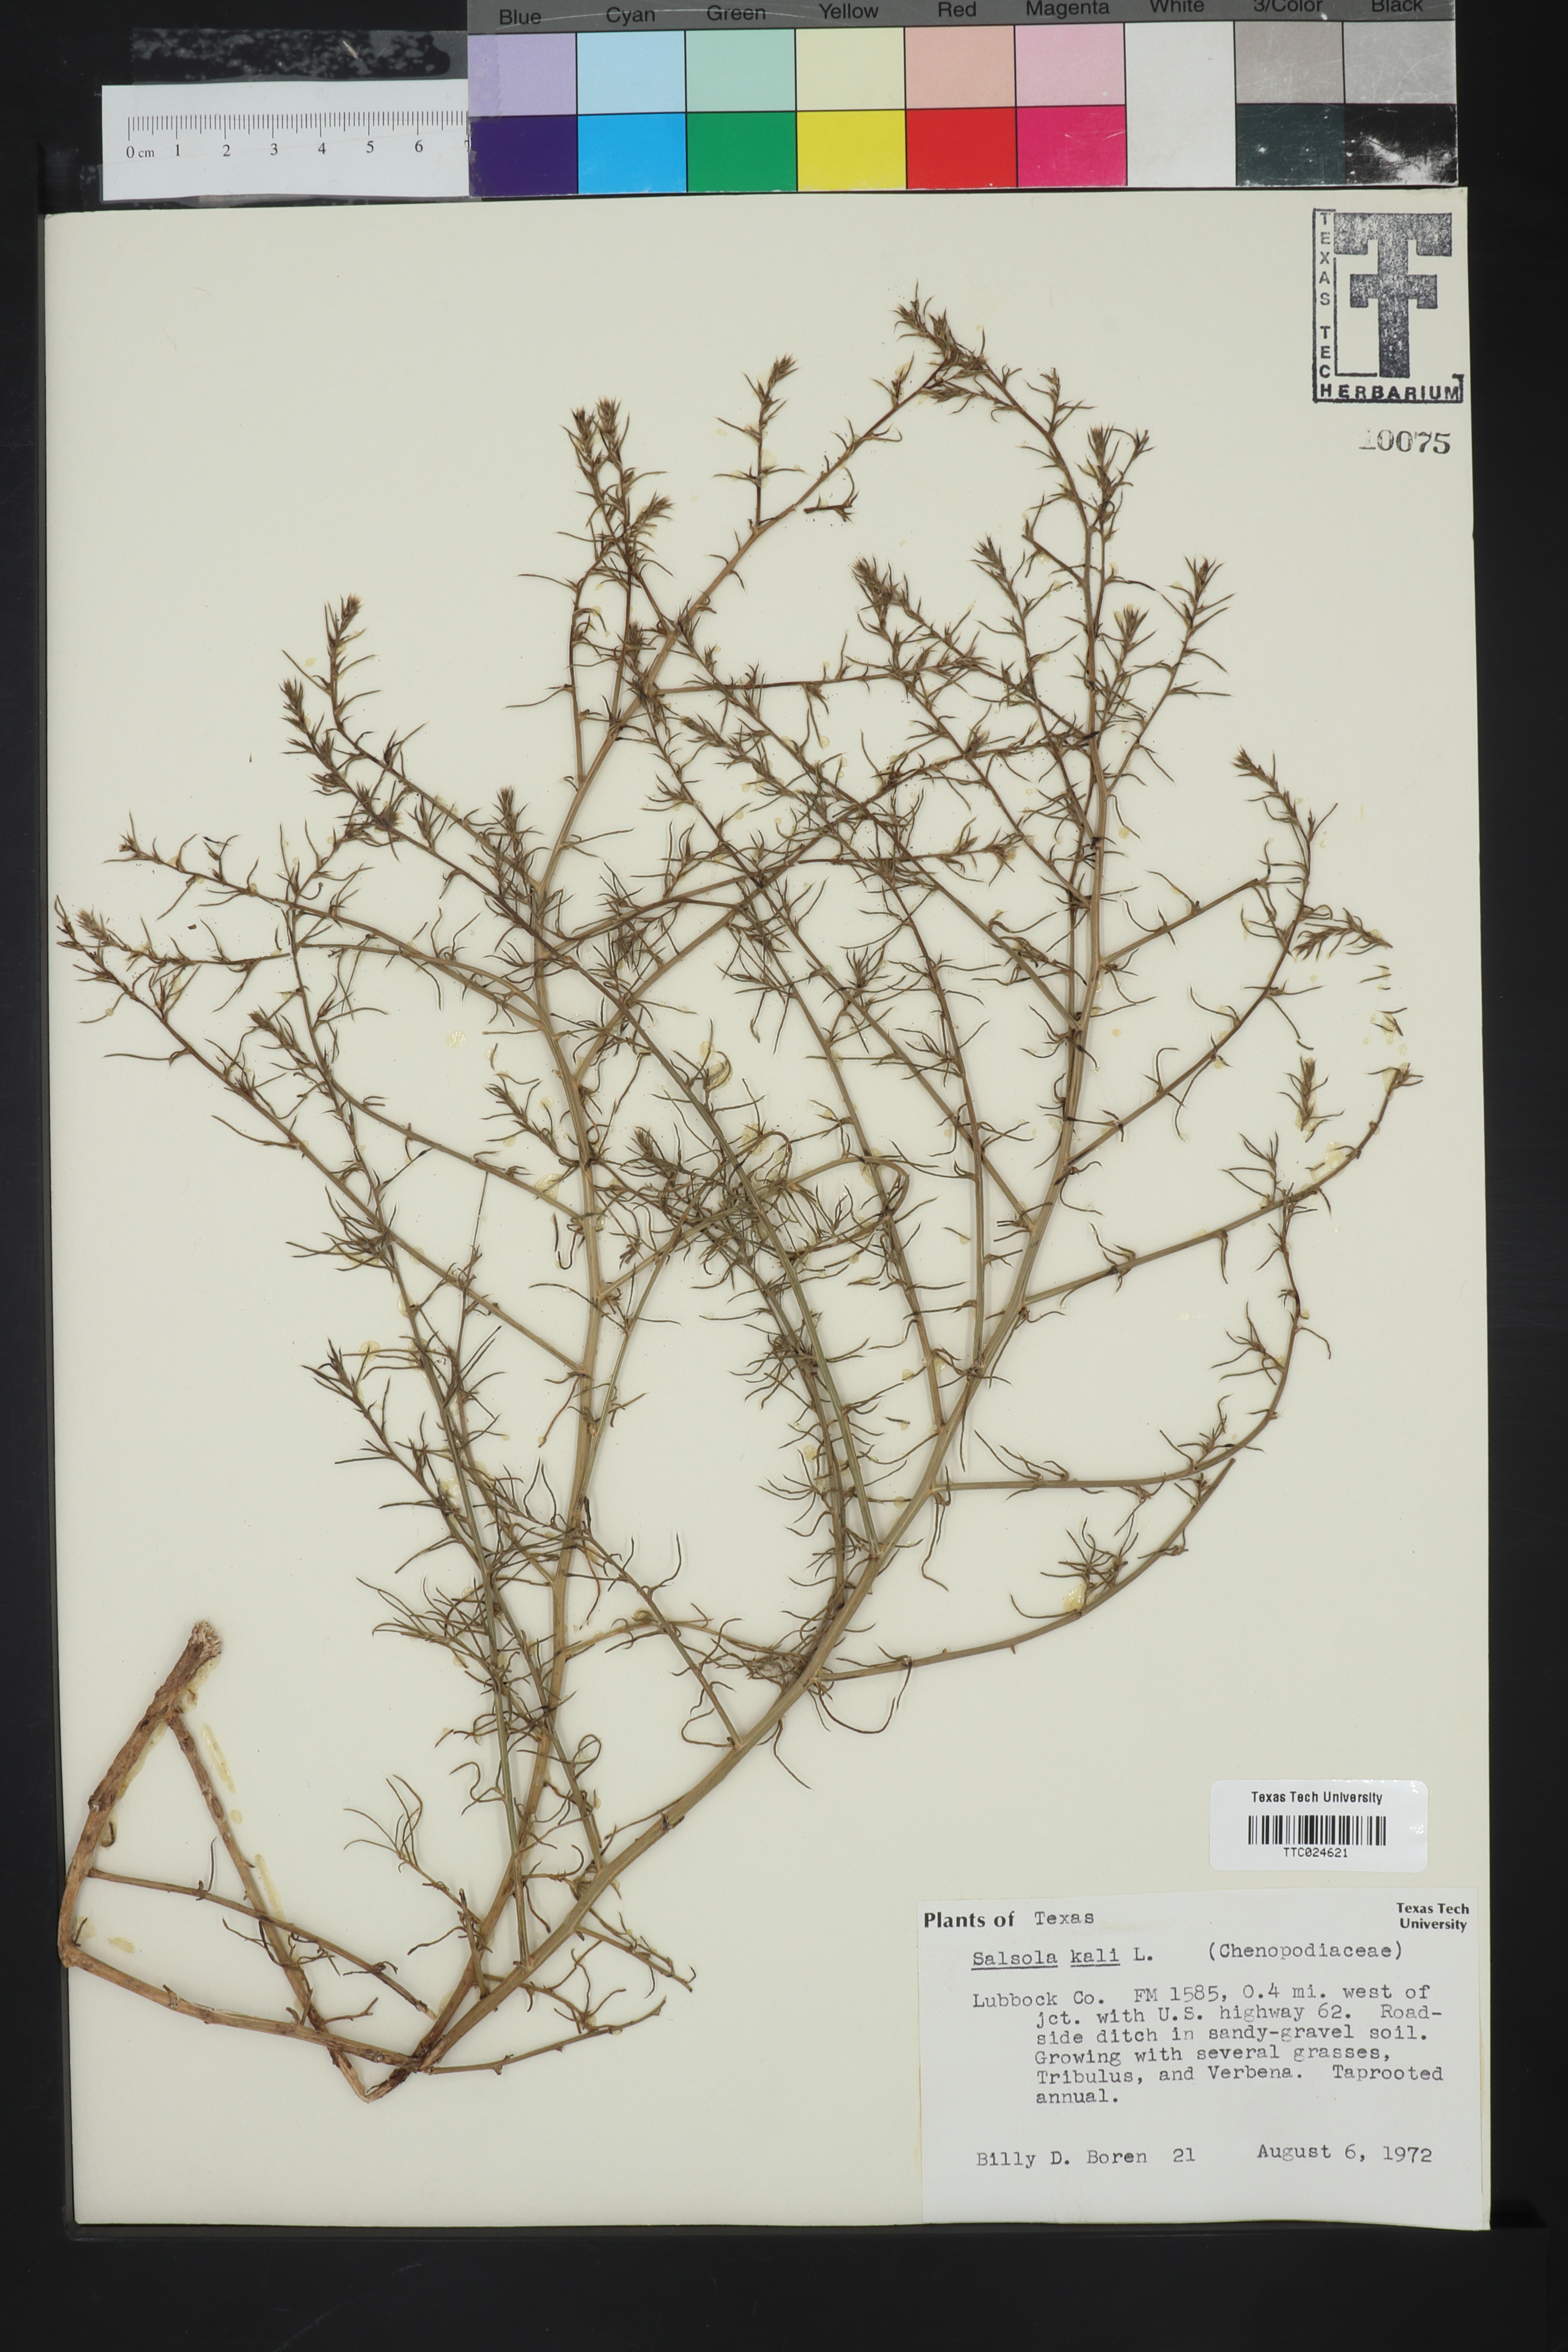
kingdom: Plantae
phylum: Tracheophyta
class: Magnoliopsida
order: Caryophyllales
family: Amaranthaceae
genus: Salsola
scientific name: Salsola kali
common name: Saltwort
